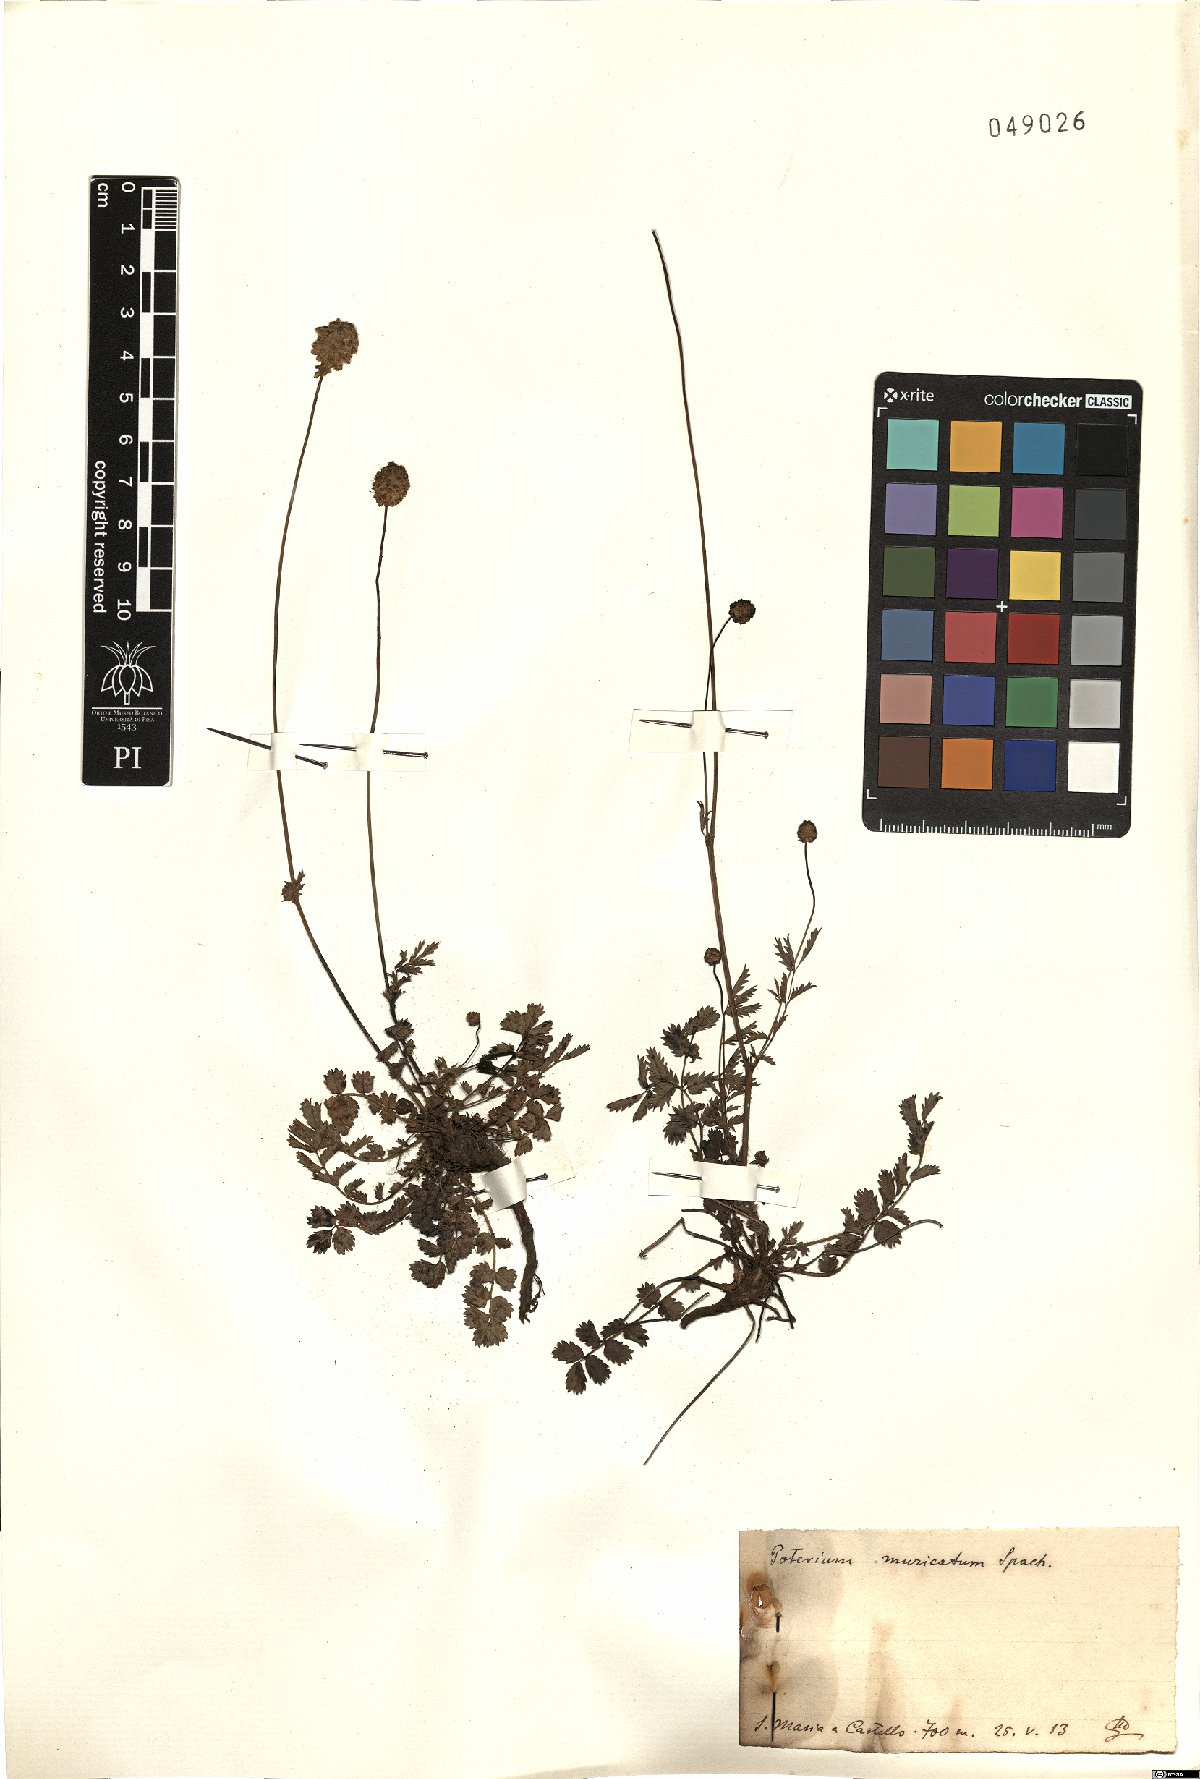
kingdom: Plantae
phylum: Tracheophyta
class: Magnoliopsida
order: Rosales
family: Rosaceae
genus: Poterium
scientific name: Poterium sanguisorba
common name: Salad burnet
